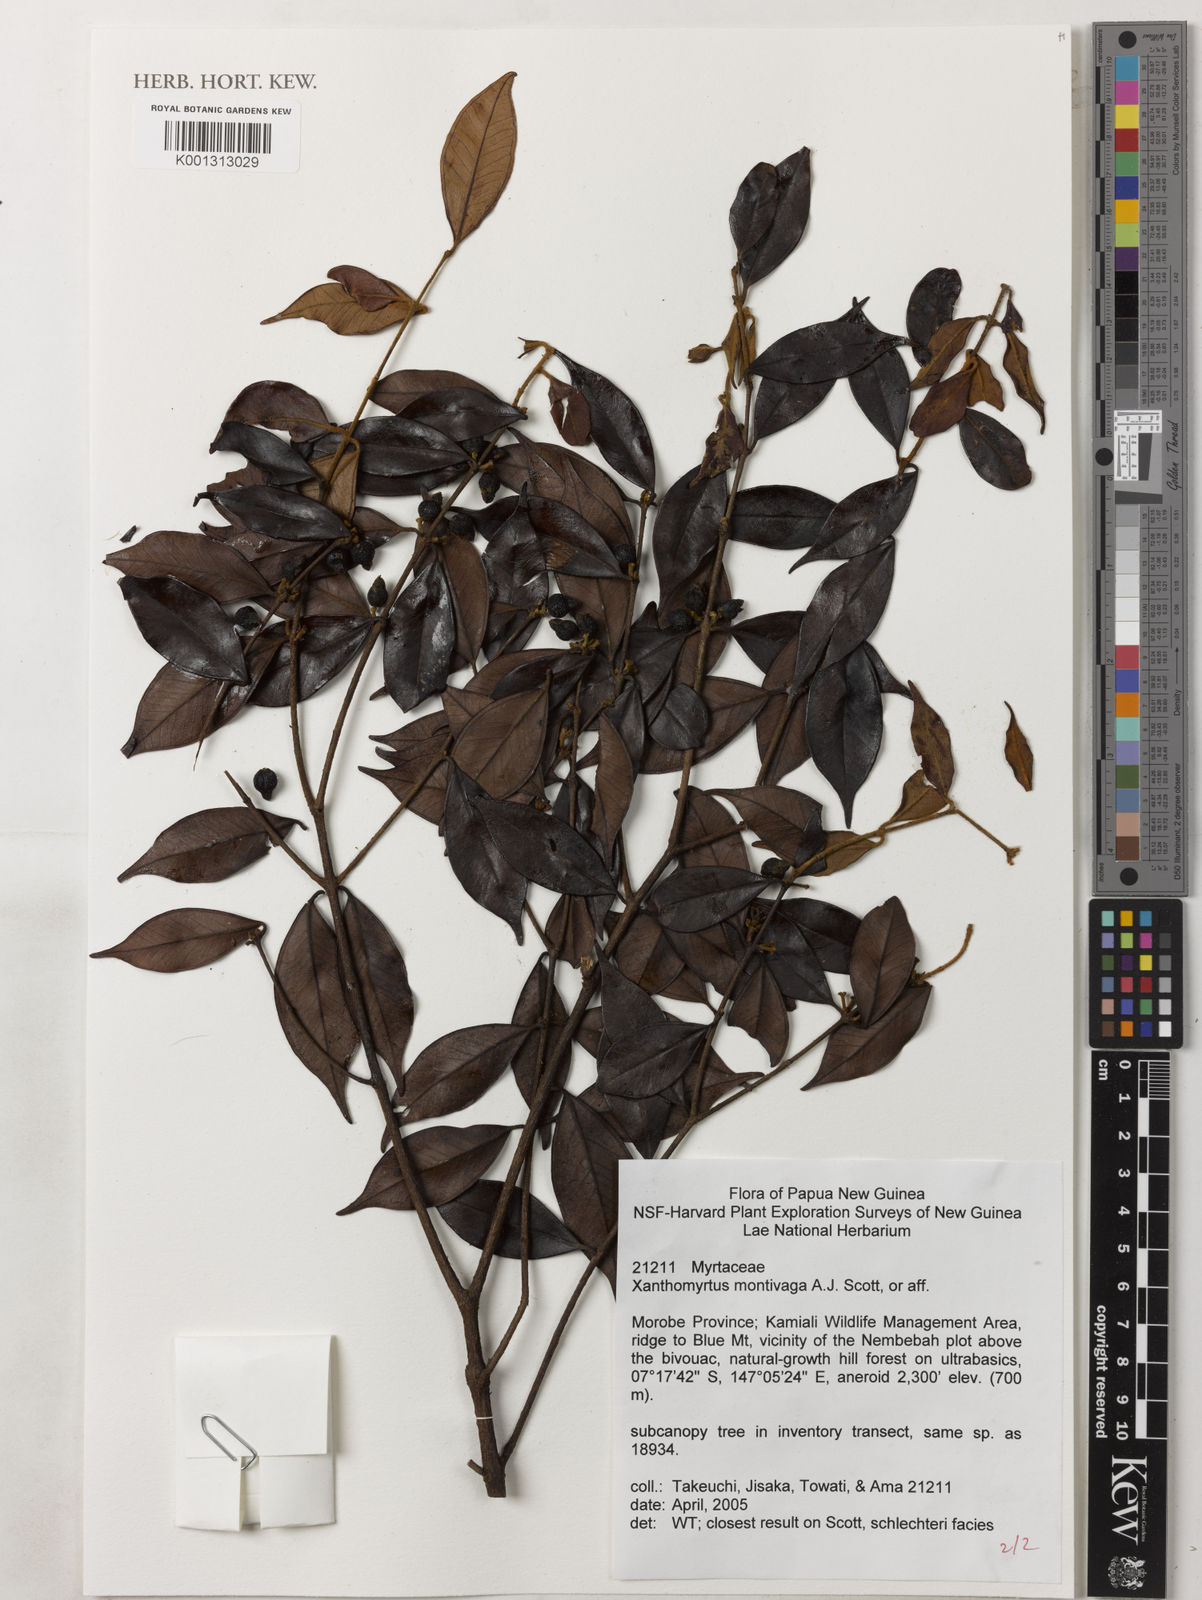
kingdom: Plantae
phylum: Tracheophyta
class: Magnoliopsida
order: Myrtales
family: Myrtaceae
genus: Xanthomyrtus
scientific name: Xanthomyrtus montivaga
